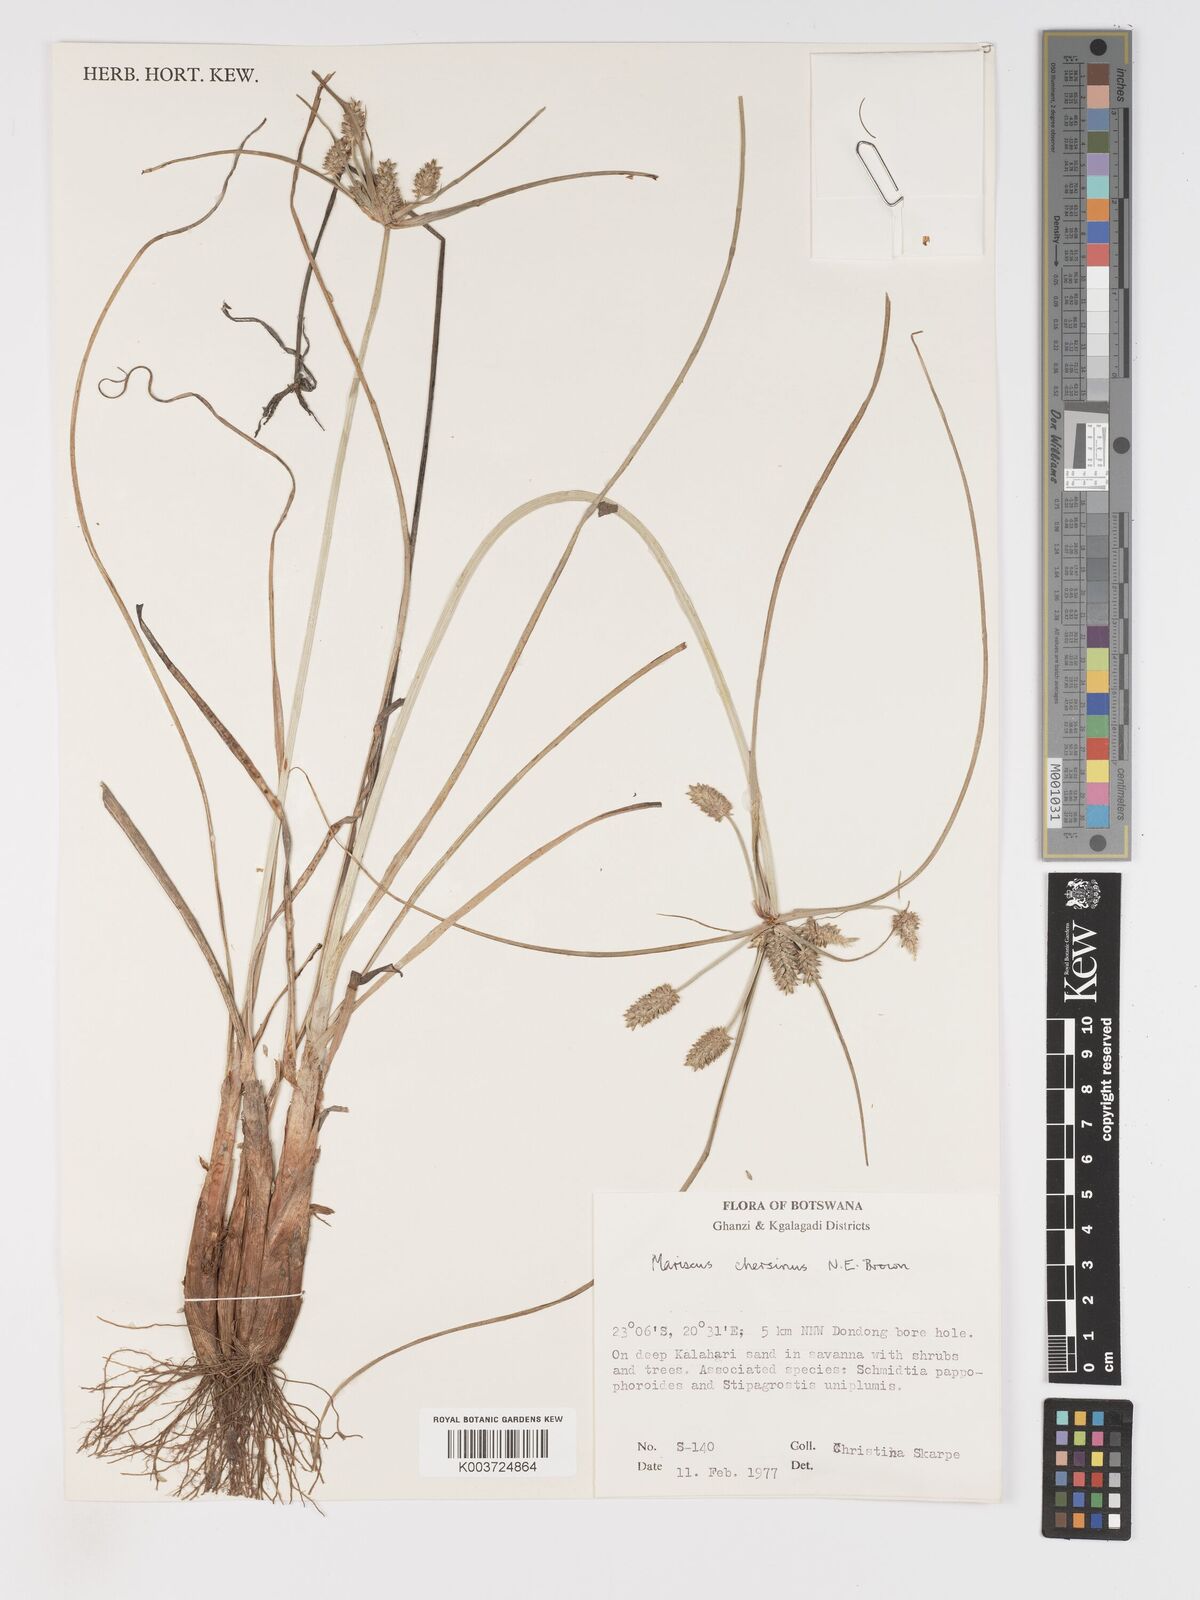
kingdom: Plantae
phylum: Tracheophyta
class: Liliopsida
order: Poales
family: Cyperaceae
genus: Cyperus
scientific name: Cyperus chersinus
